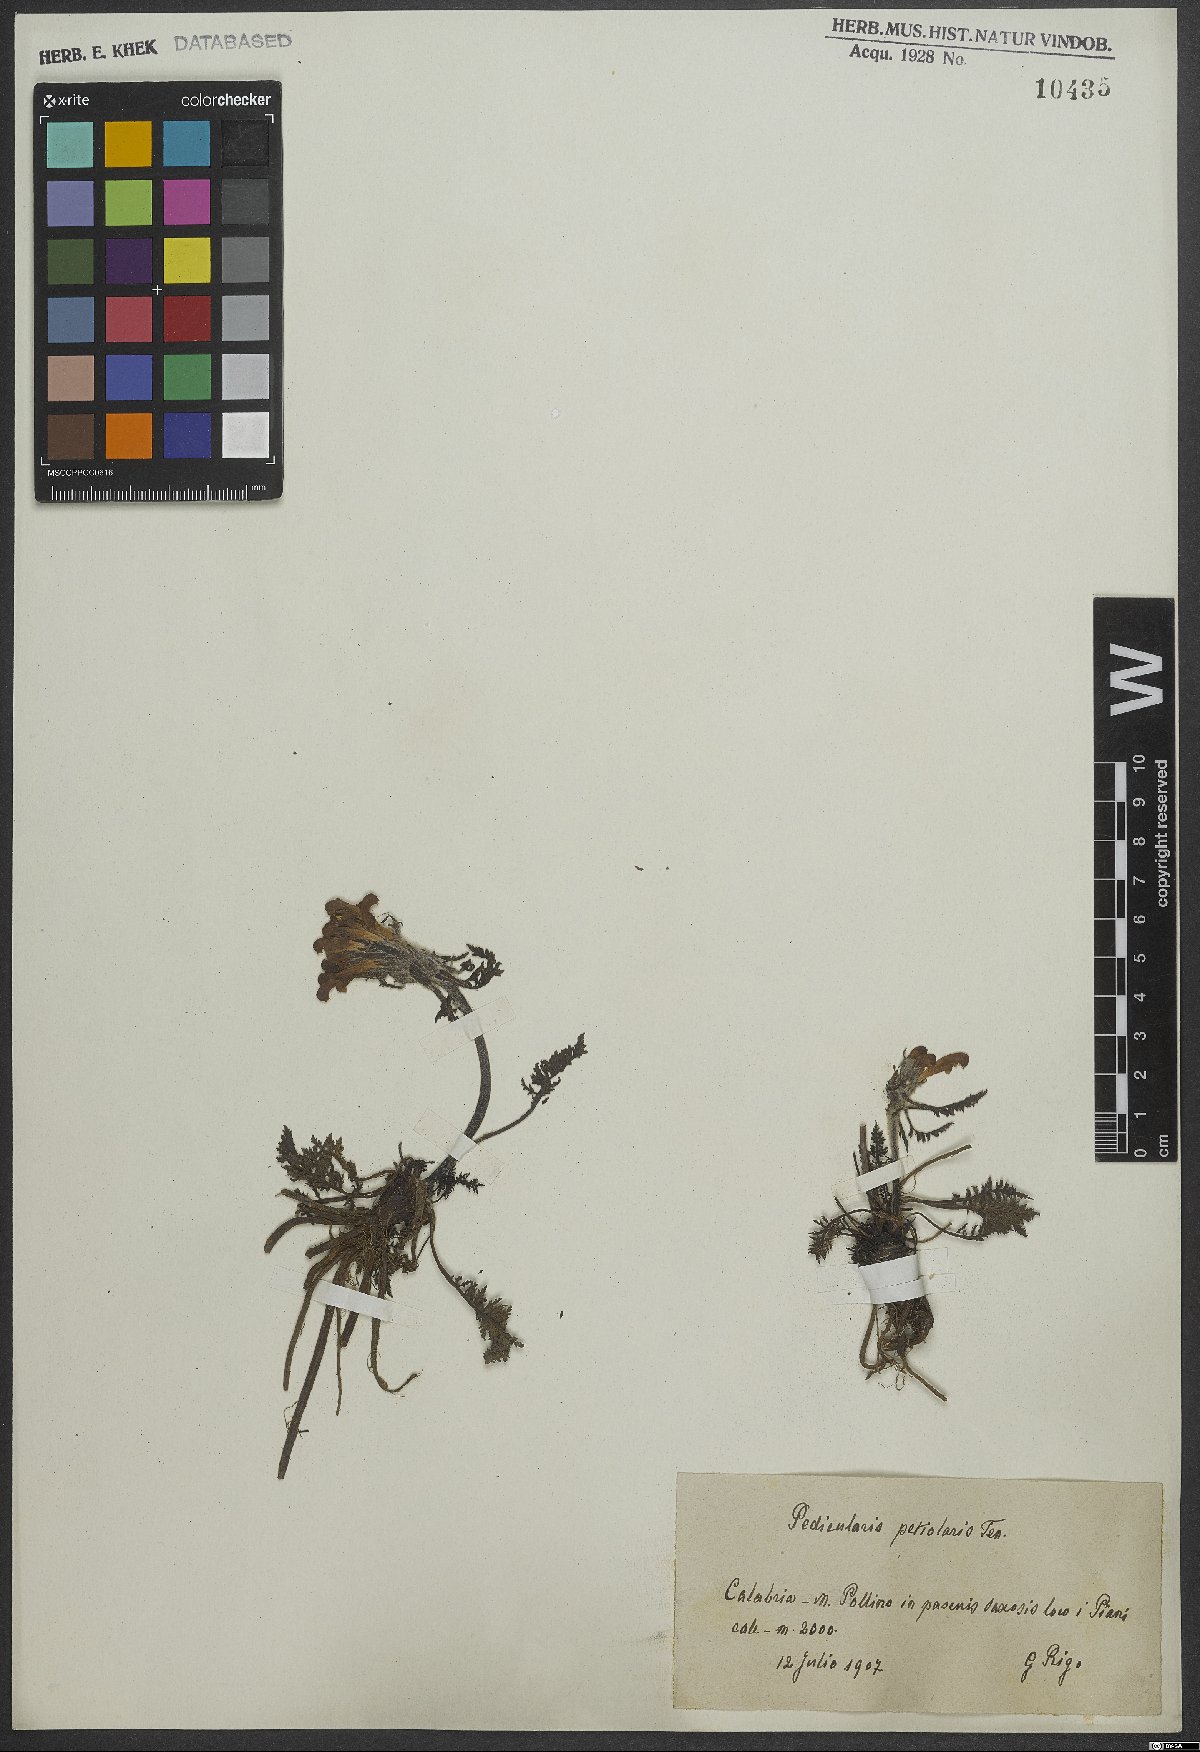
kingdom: Plantae
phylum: Tracheophyta
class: Magnoliopsida
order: Lamiales
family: Orobanchaceae
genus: Pedicularis
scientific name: Pedicularis petiolaris
